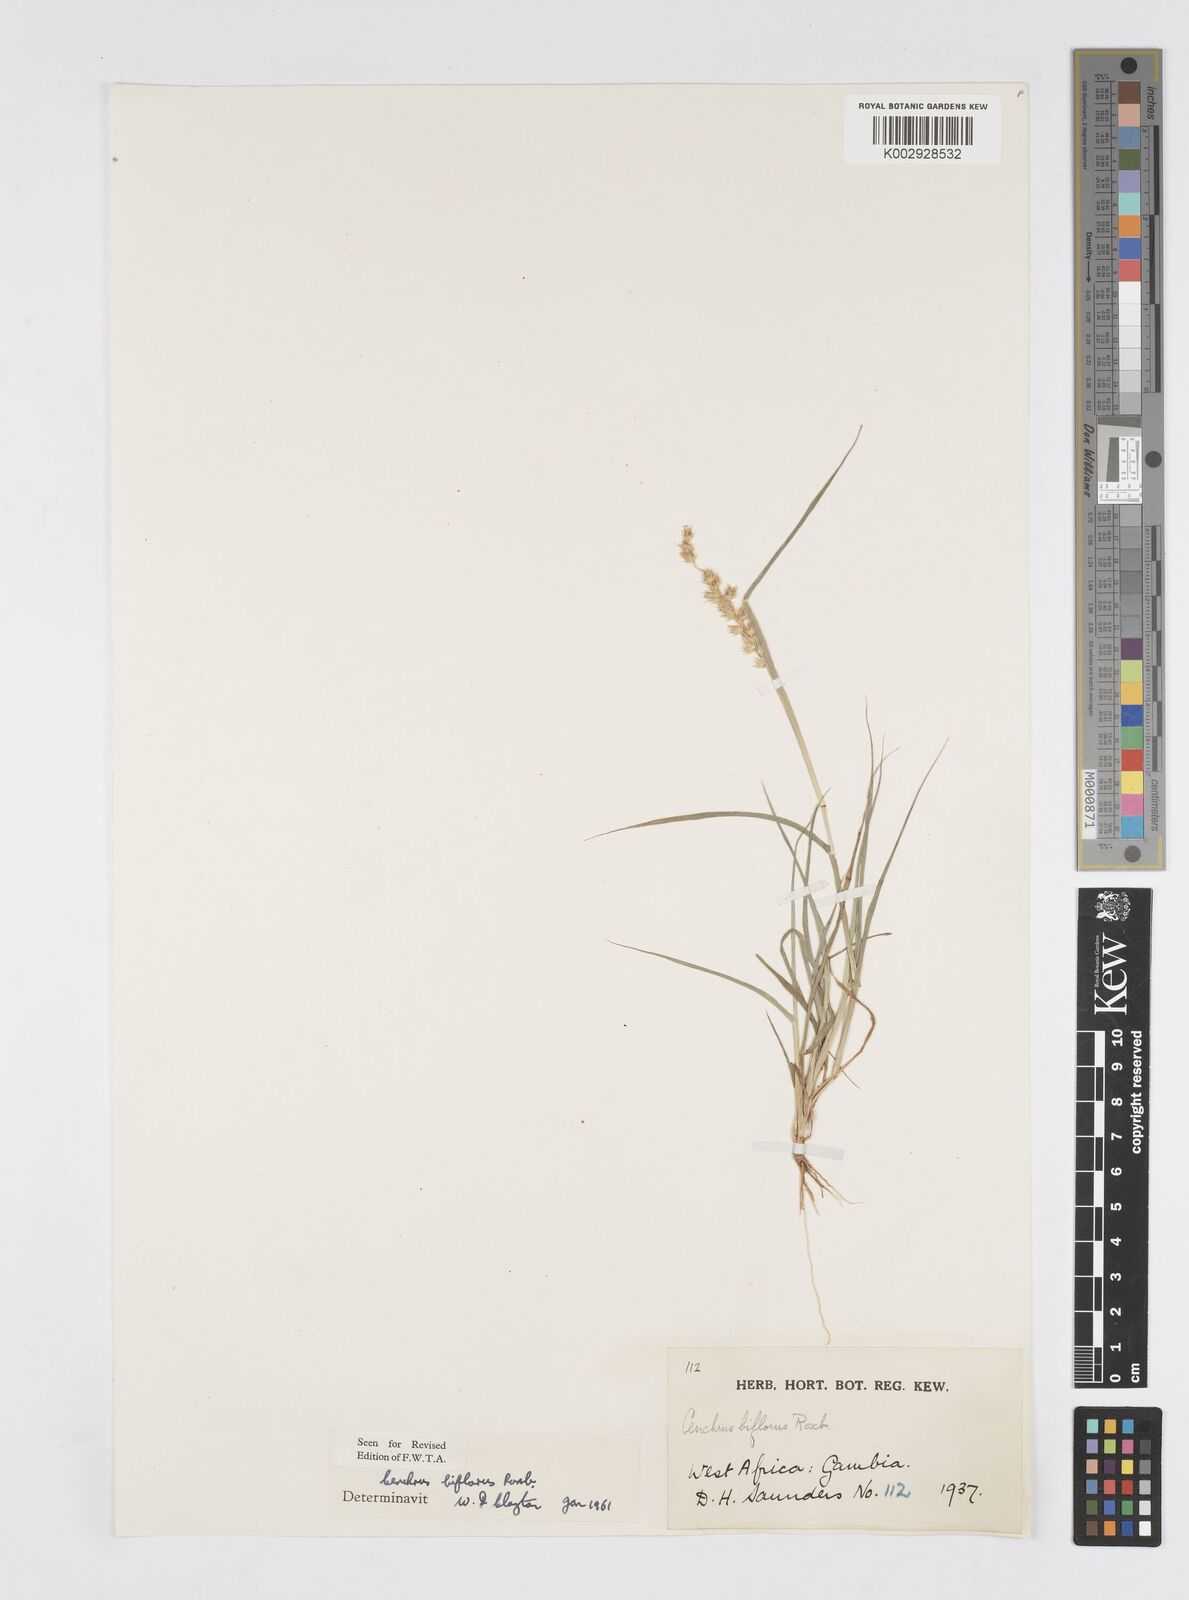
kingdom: Plantae
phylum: Tracheophyta
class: Liliopsida
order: Poales
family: Poaceae
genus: Cenchrus
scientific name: Cenchrus biflorus
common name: Indian sandbur
